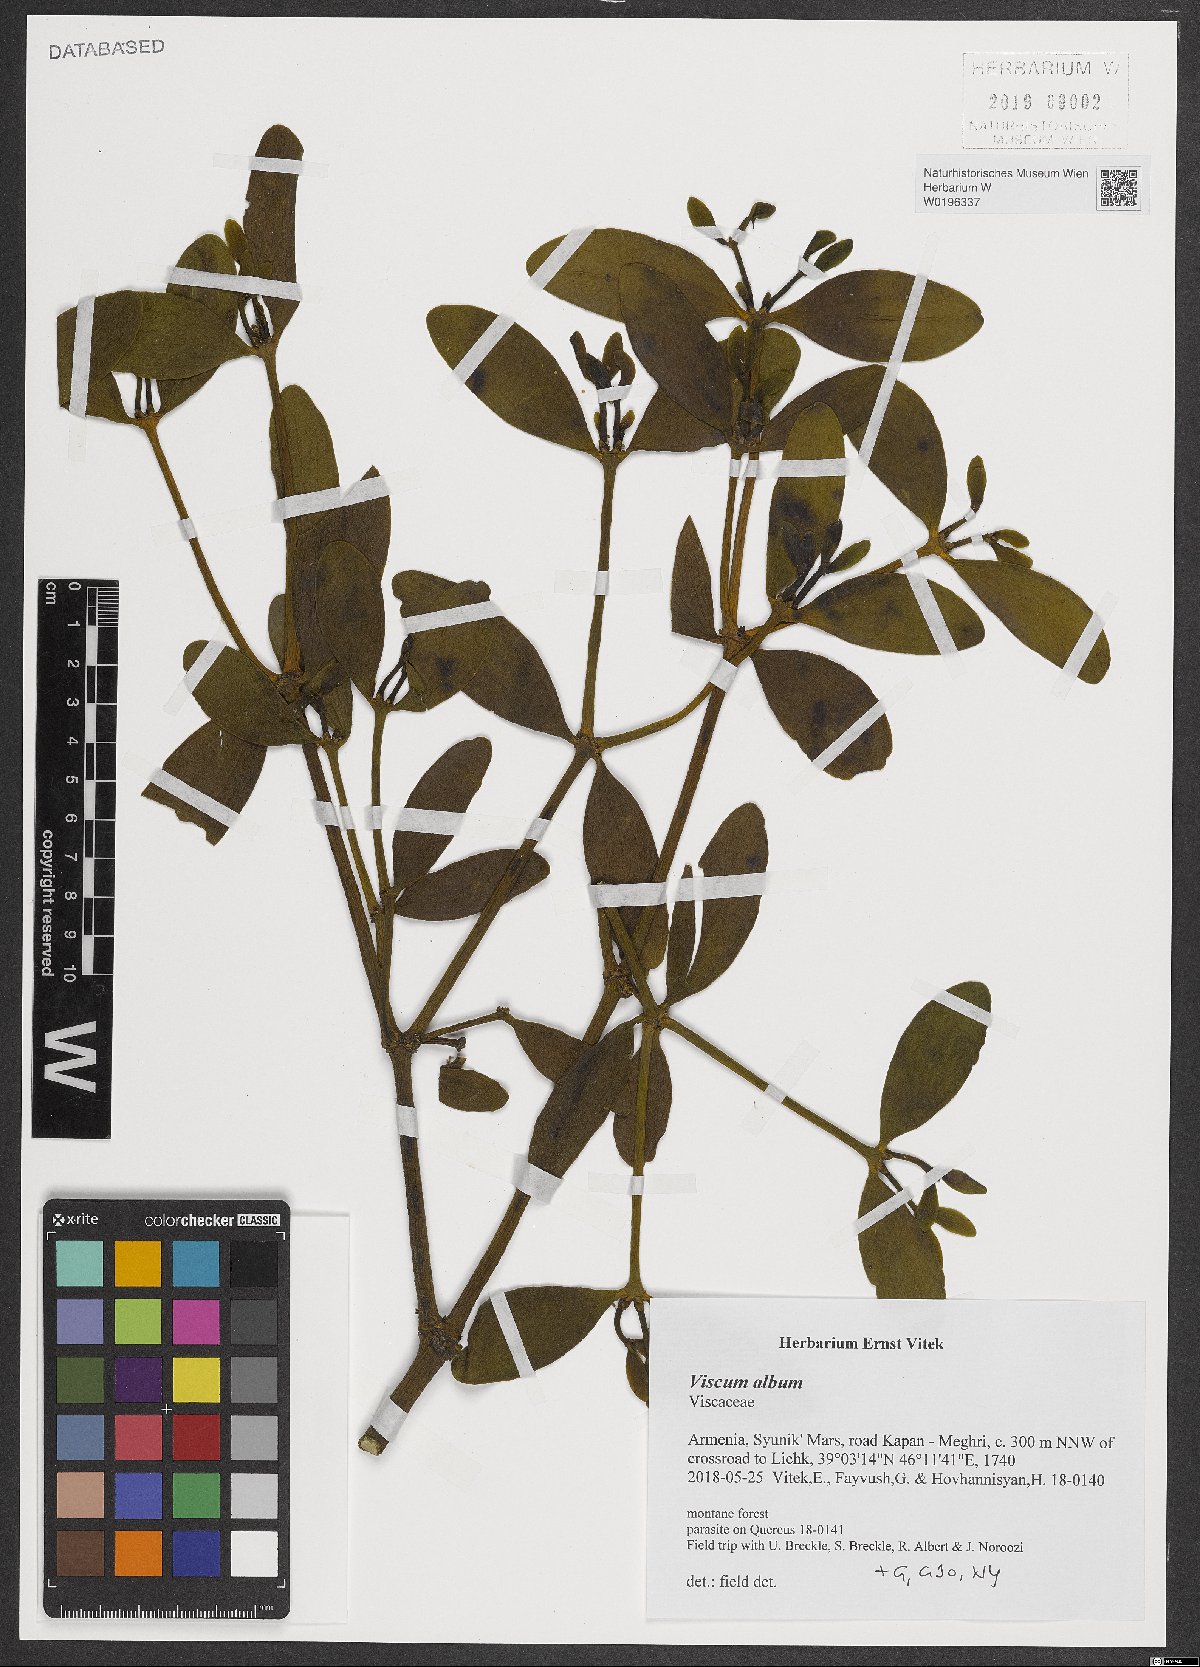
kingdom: Plantae
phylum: Tracheophyta
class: Magnoliopsida
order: Santalales
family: Viscaceae
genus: Viscum
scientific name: Viscum album
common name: Mistletoe
